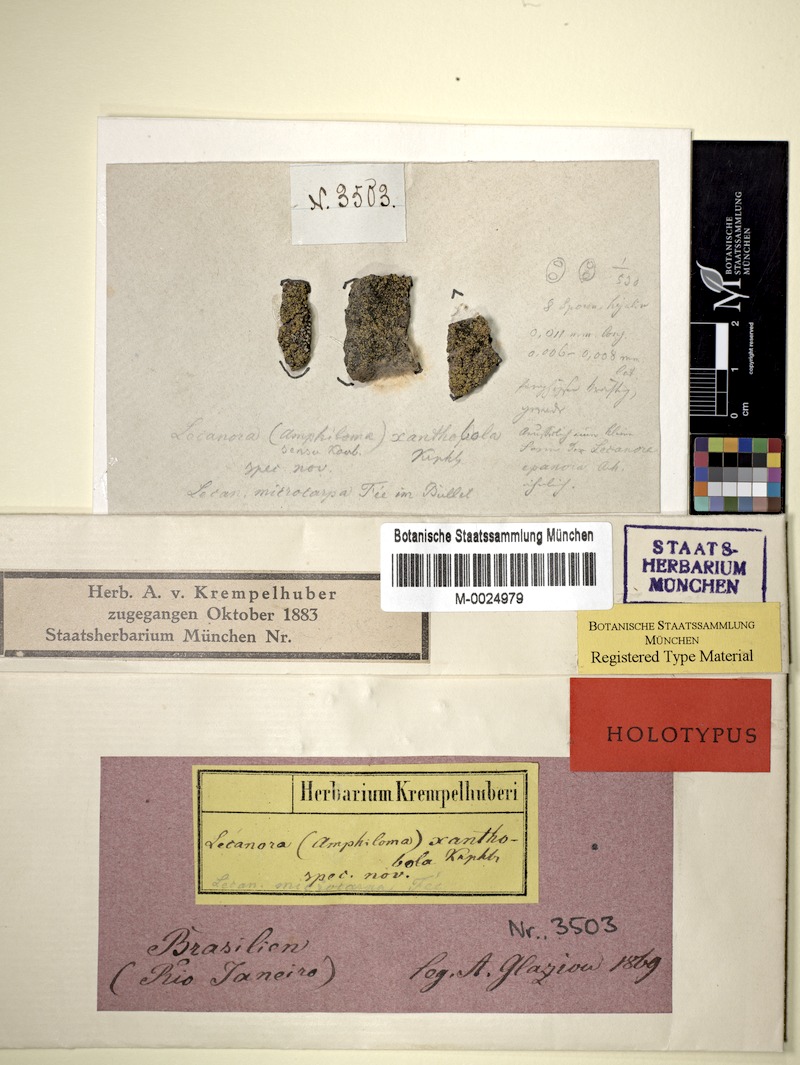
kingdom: Fungi
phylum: Ascomycota
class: Lecanoromycetes
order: Teloschistales
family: Teloschistaceae
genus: Caloplaca
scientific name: Caloplaca
